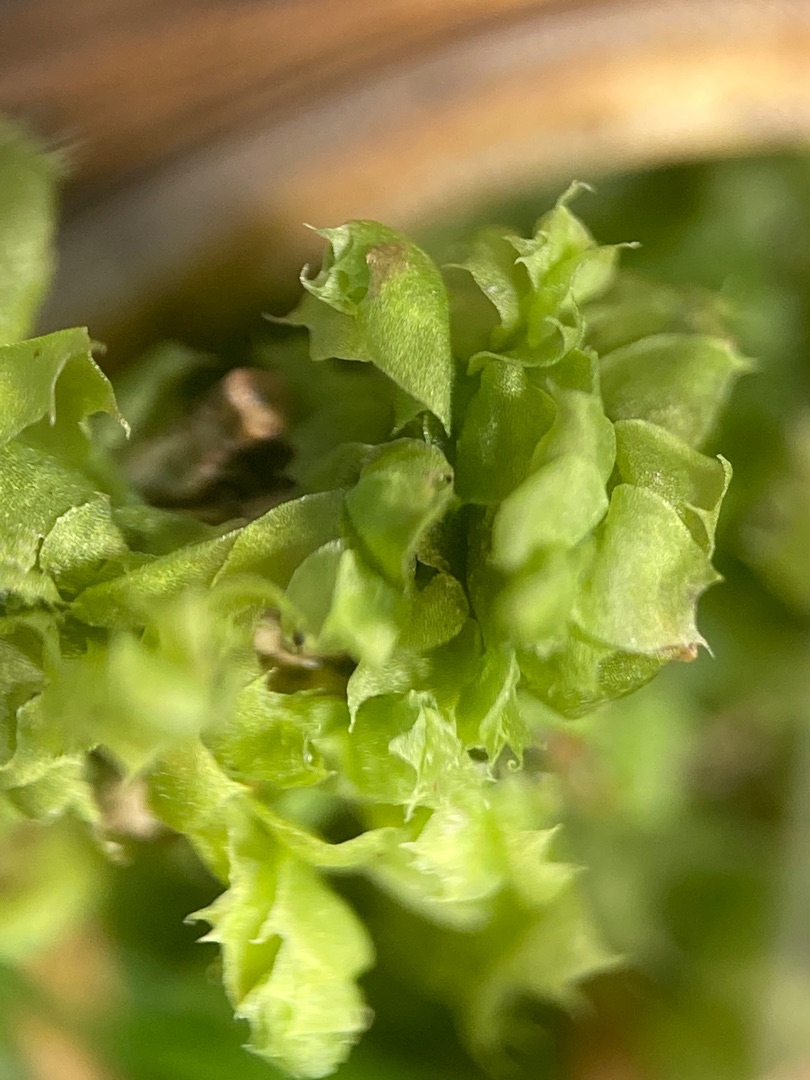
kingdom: Plantae
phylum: Marchantiophyta
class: Jungermanniopsida
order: Jungermanniales
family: Lophocoleaceae
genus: Lophocolea
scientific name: Lophocolea bidentata
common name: Sylspidset kamsvøb
